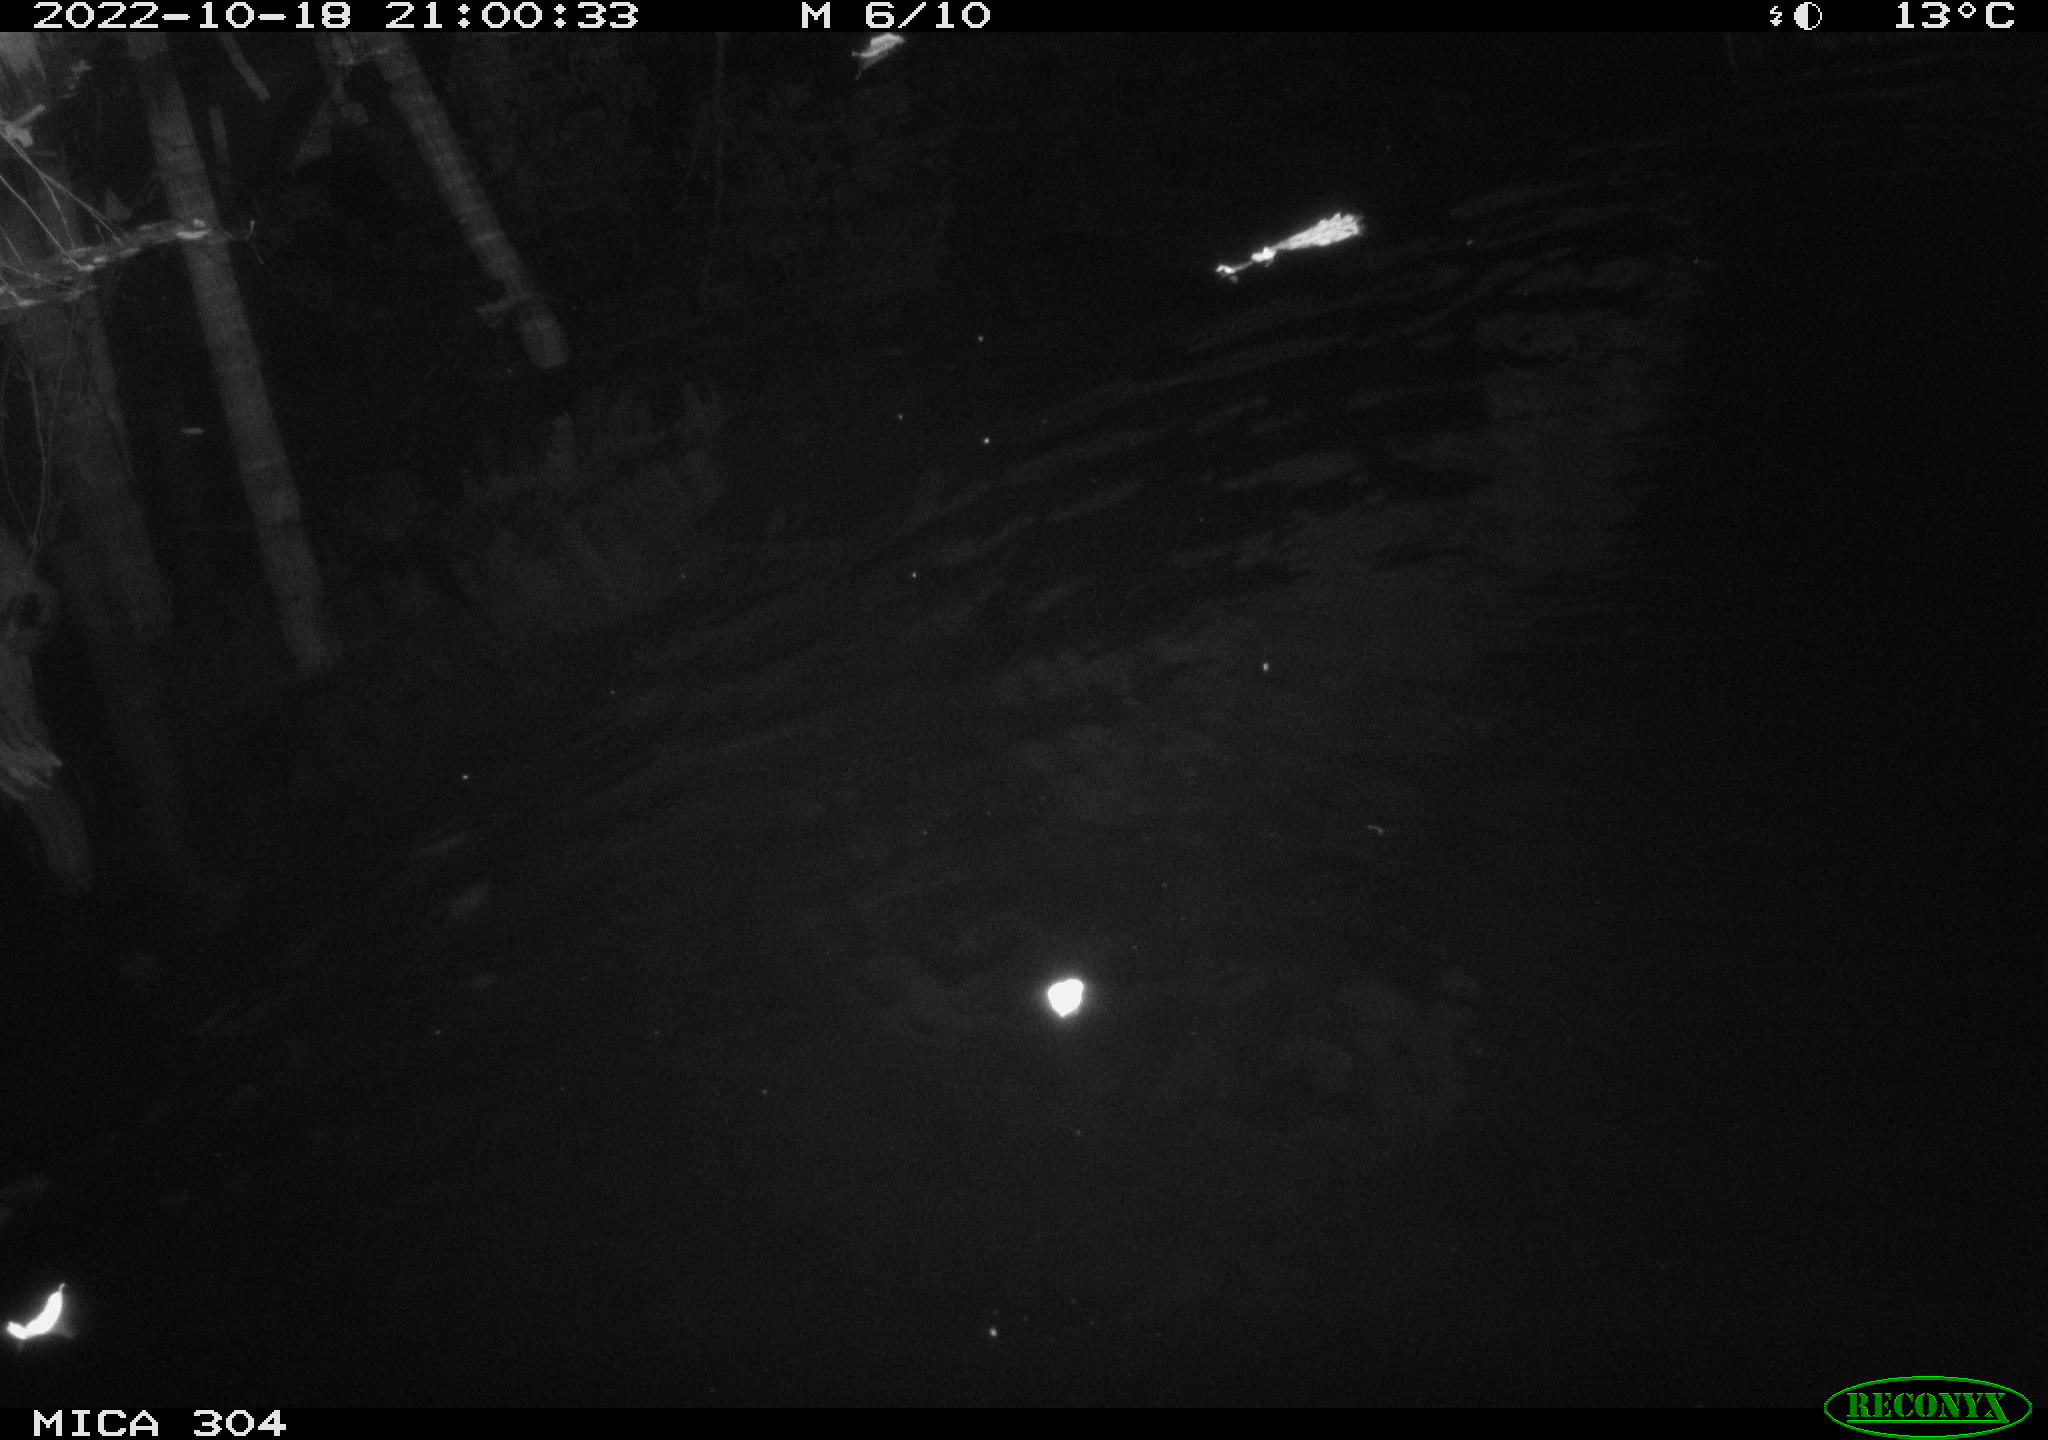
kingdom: Animalia
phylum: Chordata
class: Mammalia
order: Rodentia
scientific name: Rodentia
